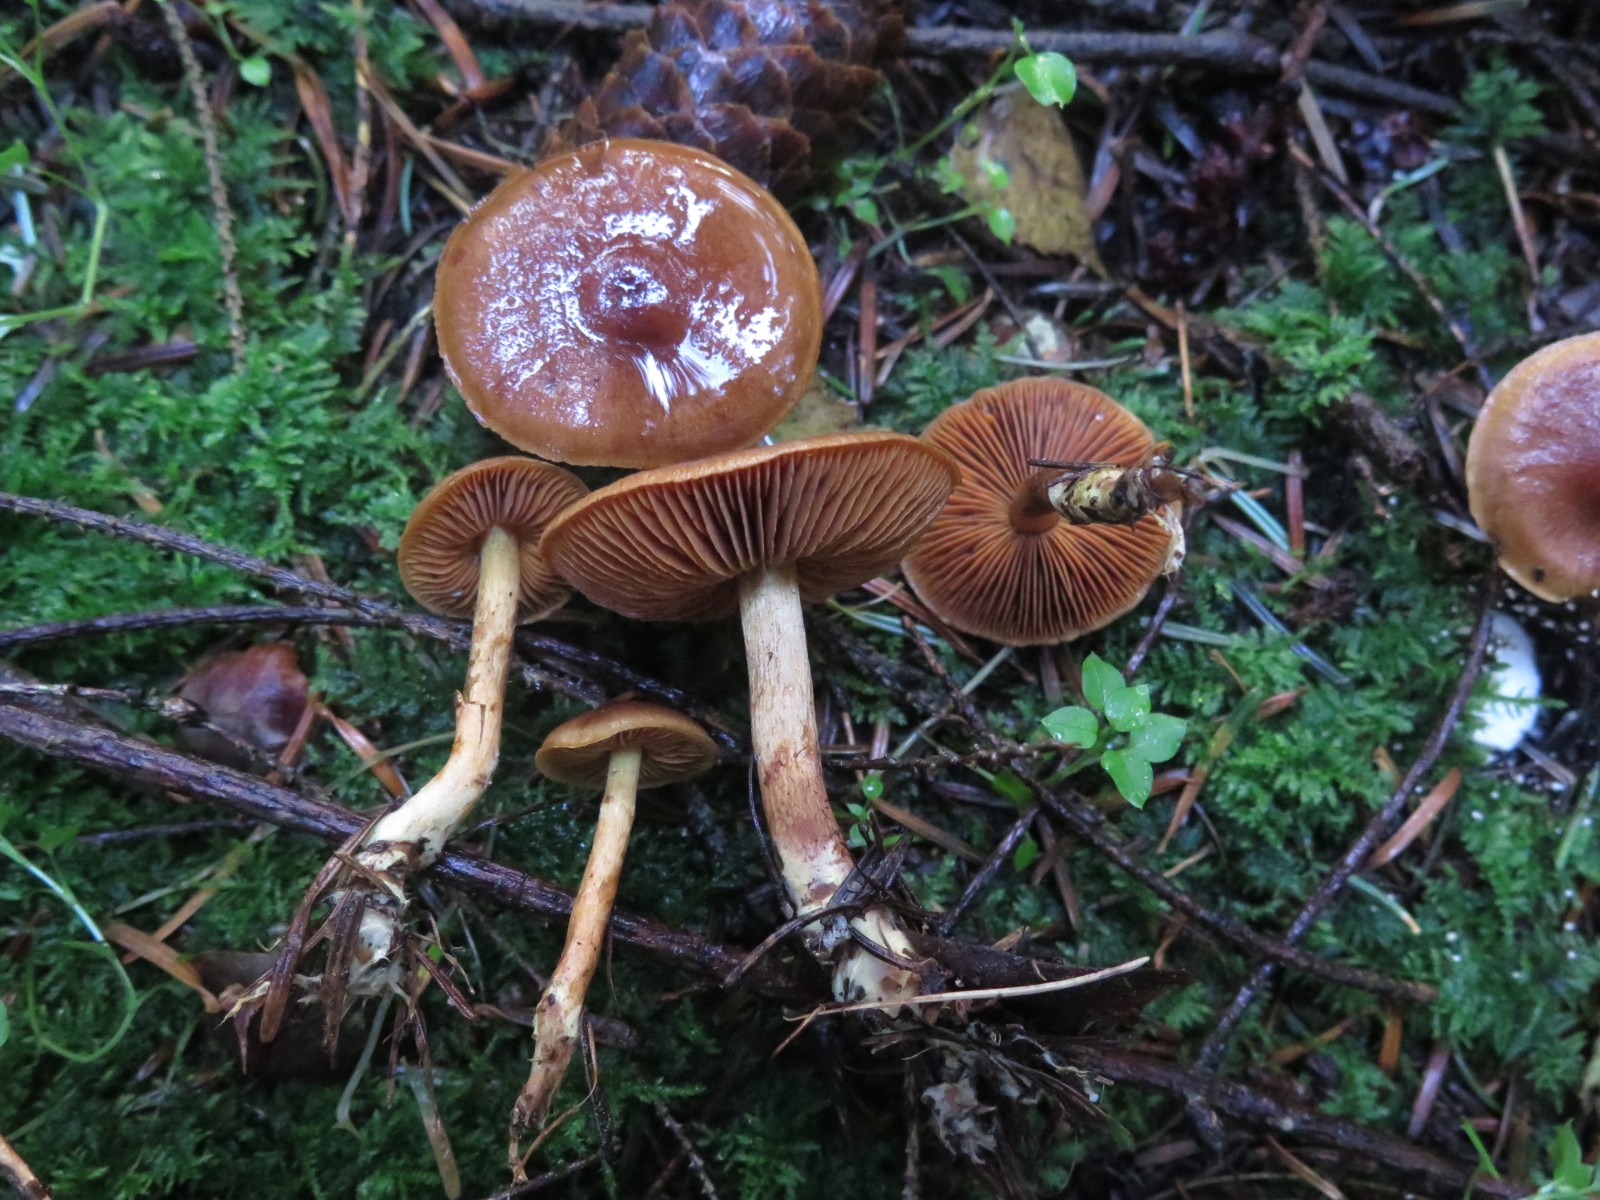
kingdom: Fungi
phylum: Basidiomycota
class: Agaricomycetes
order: Agaricales
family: Cortinariaceae
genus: Cortinarius
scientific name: Cortinarius cinnamomeus
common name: kanel-slørhat
